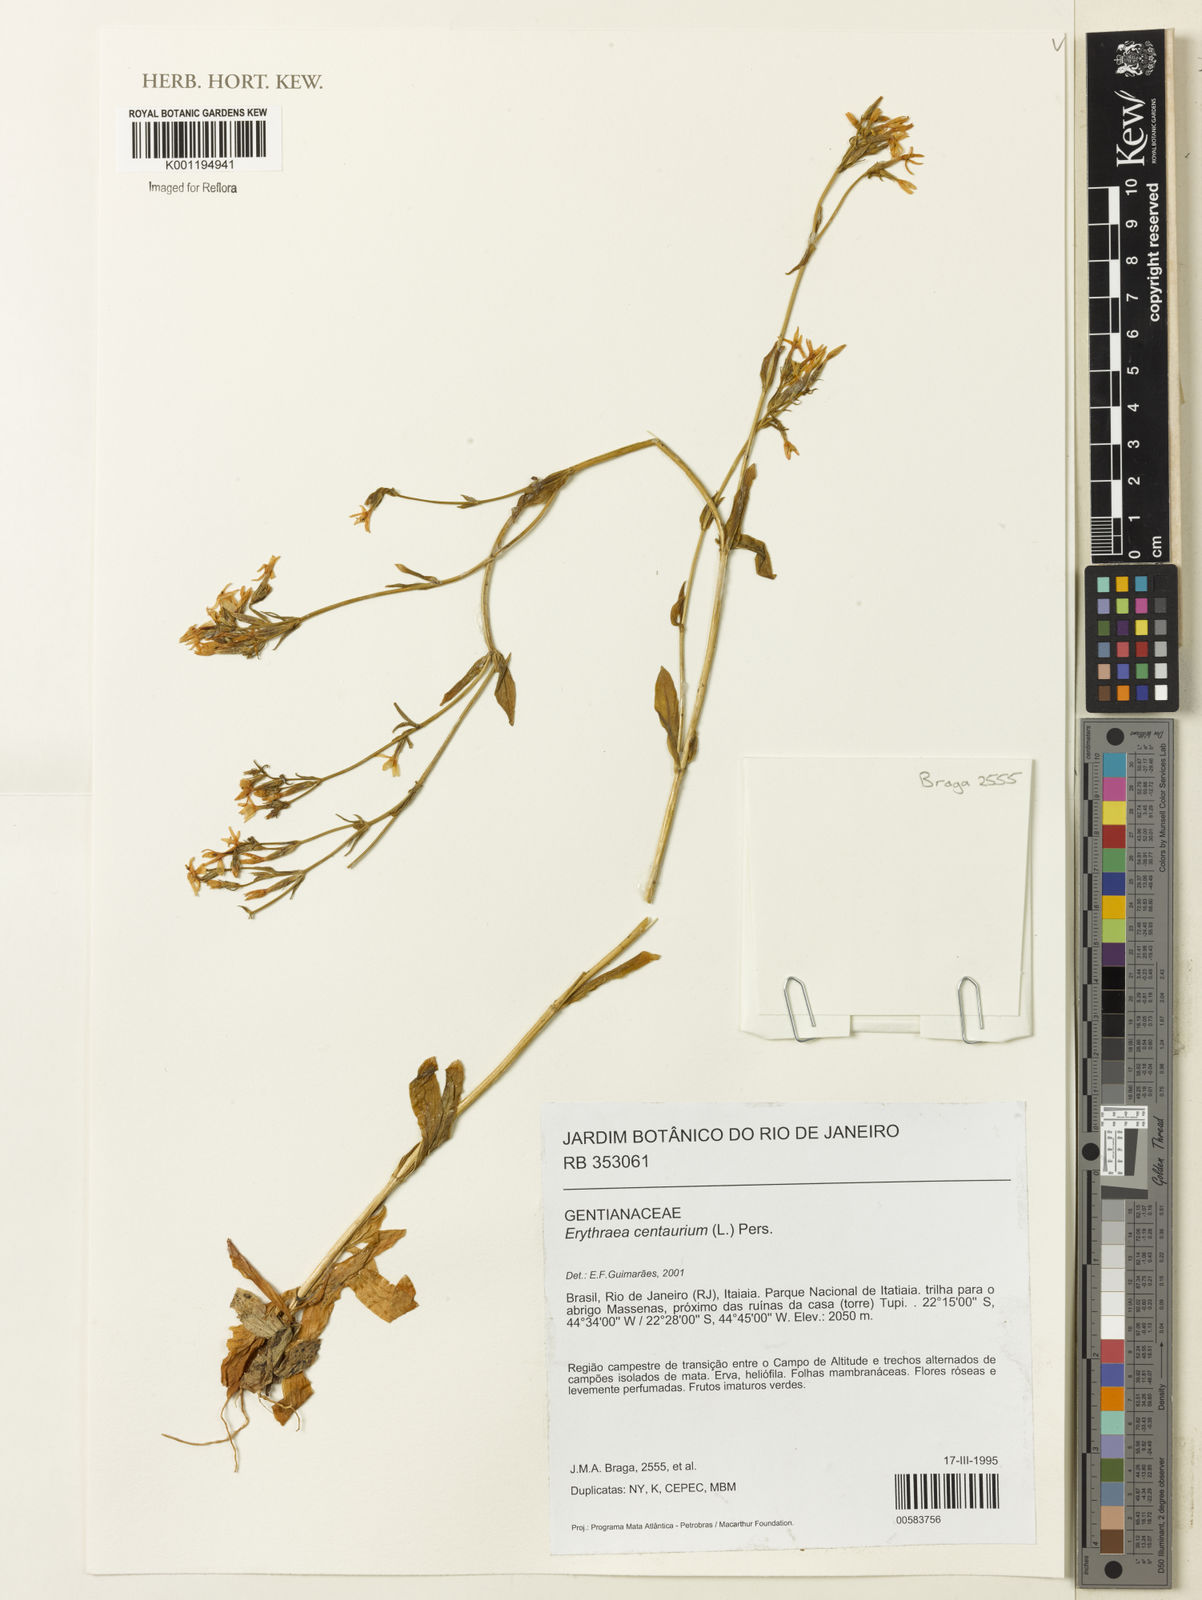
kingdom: Plantae
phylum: Tracheophyta
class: Magnoliopsida
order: Gentianales
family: Gentianaceae
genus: Centaurium
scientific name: Centaurium
